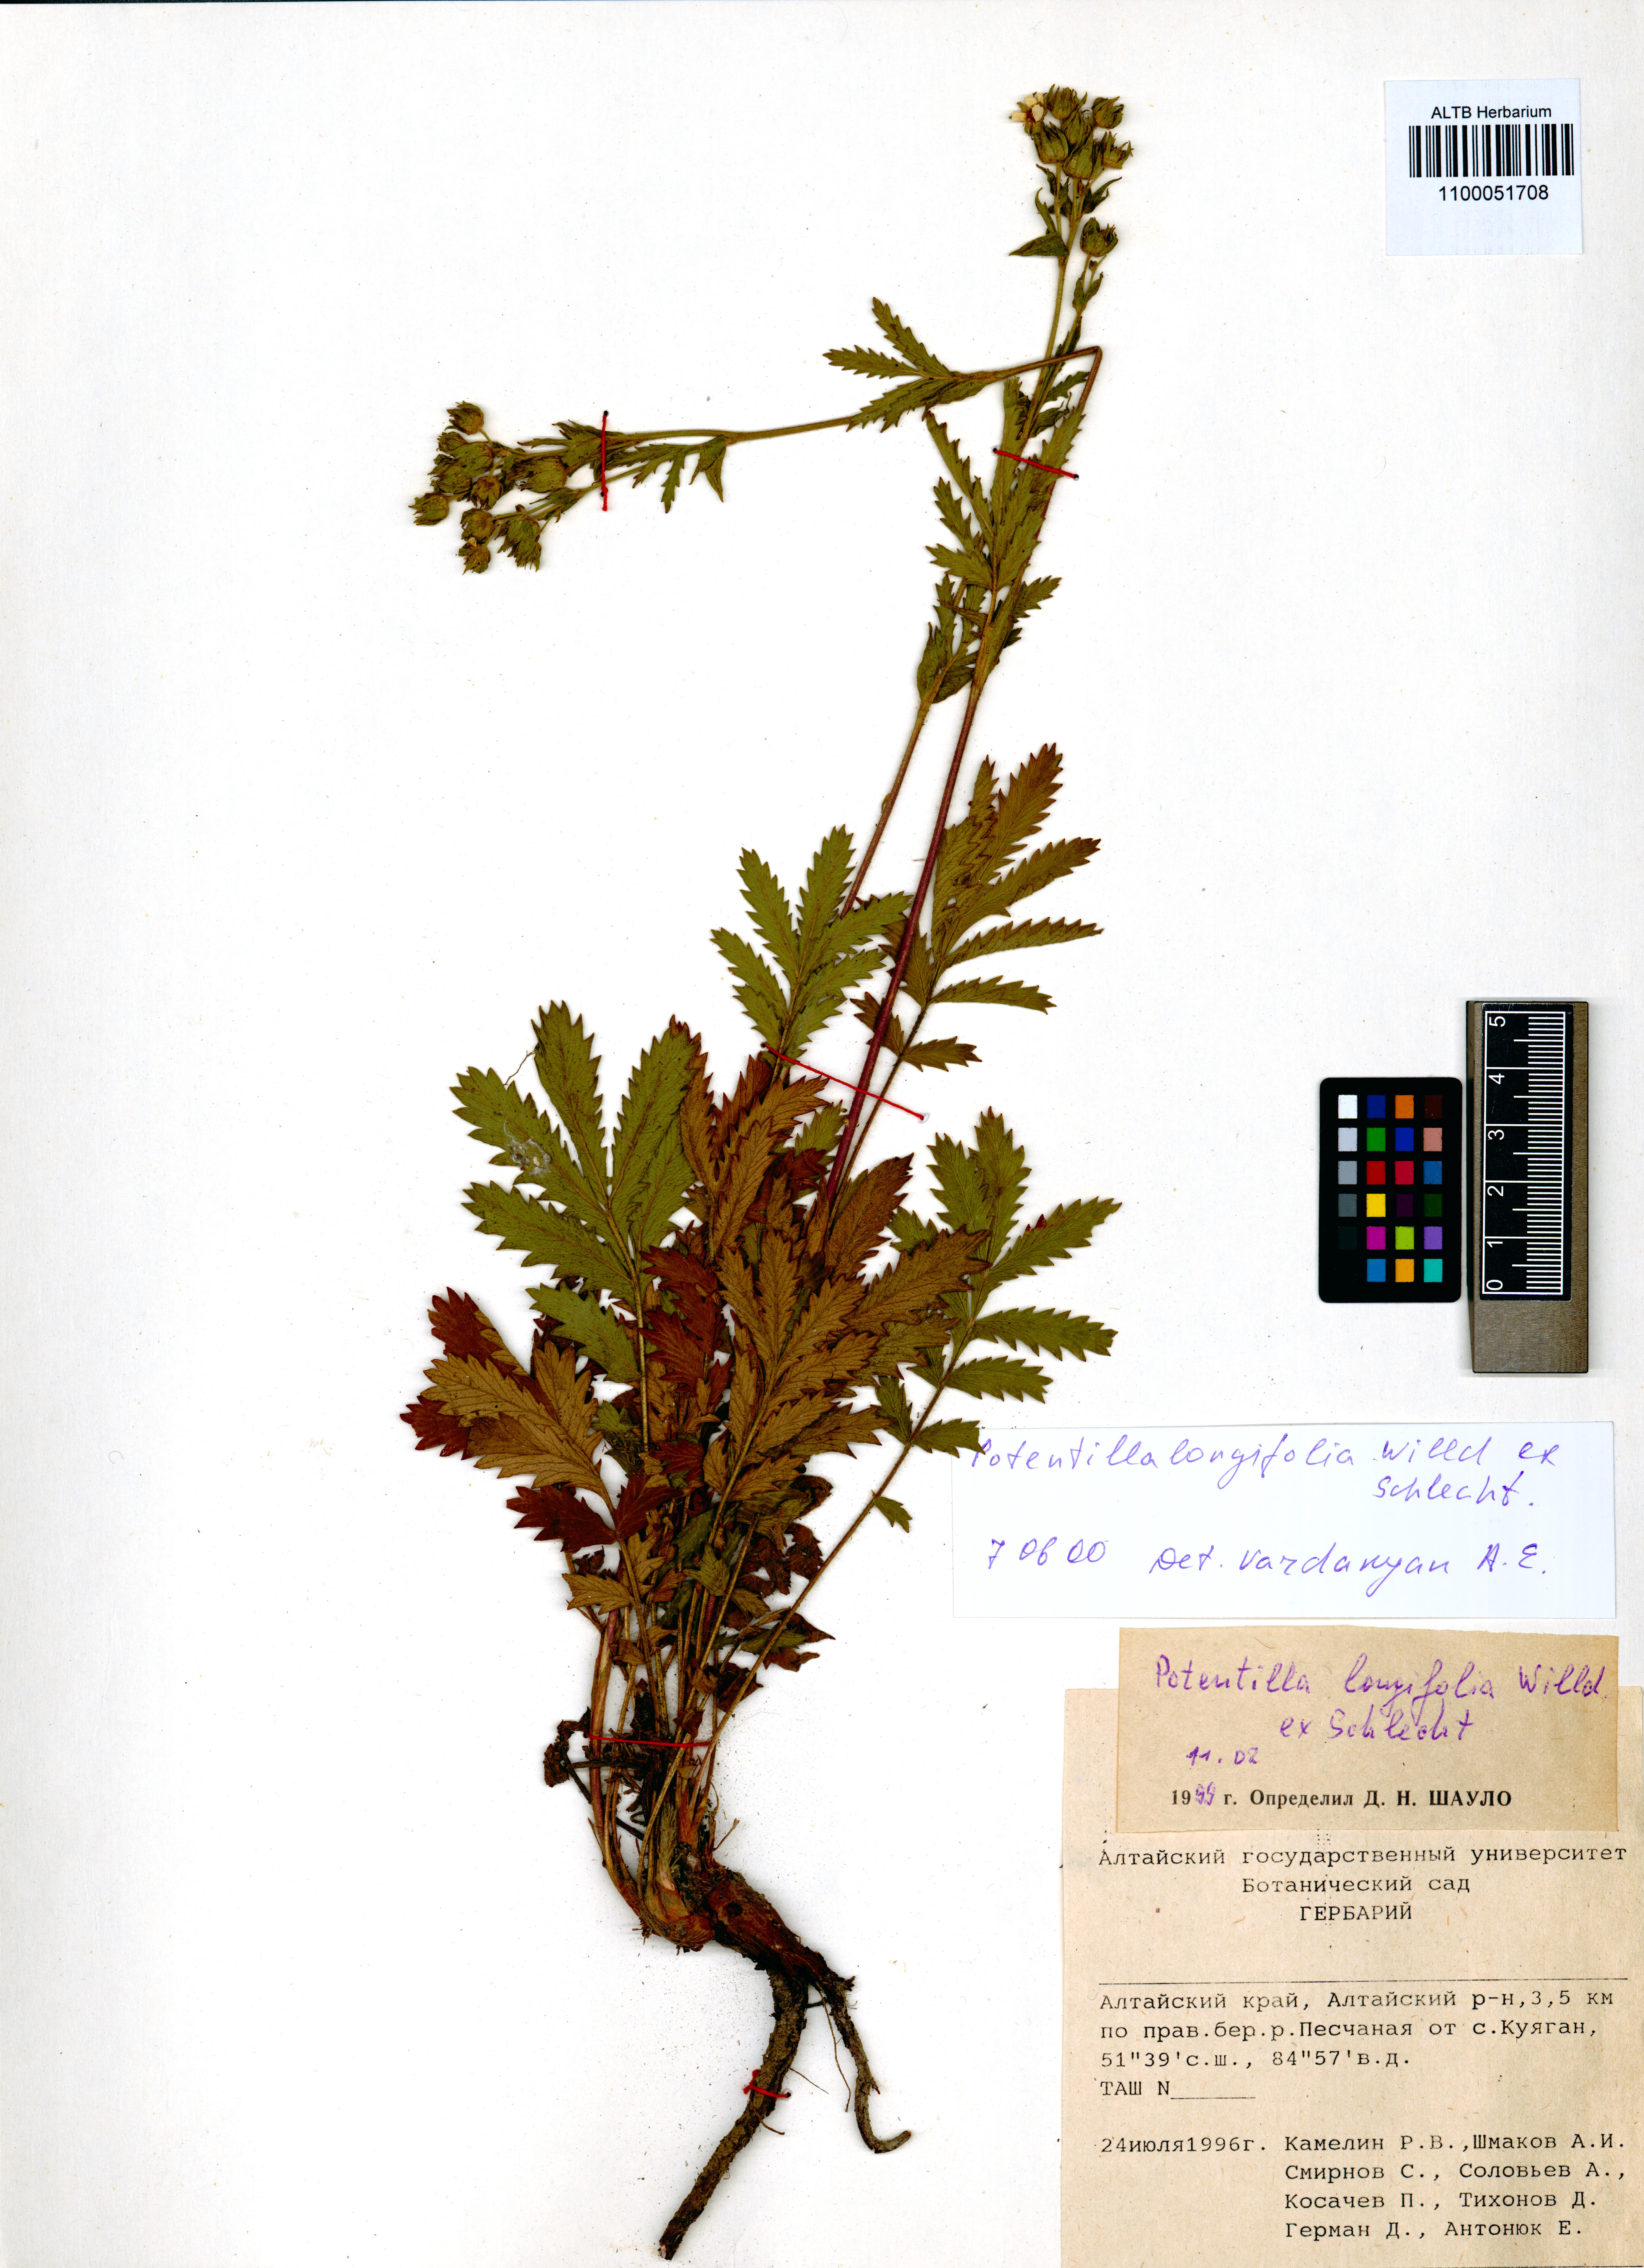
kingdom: Plantae
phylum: Tracheophyta
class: Magnoliopsida
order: Rosales
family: Rosaceae
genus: Potentilla
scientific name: Potentilla longifolia
